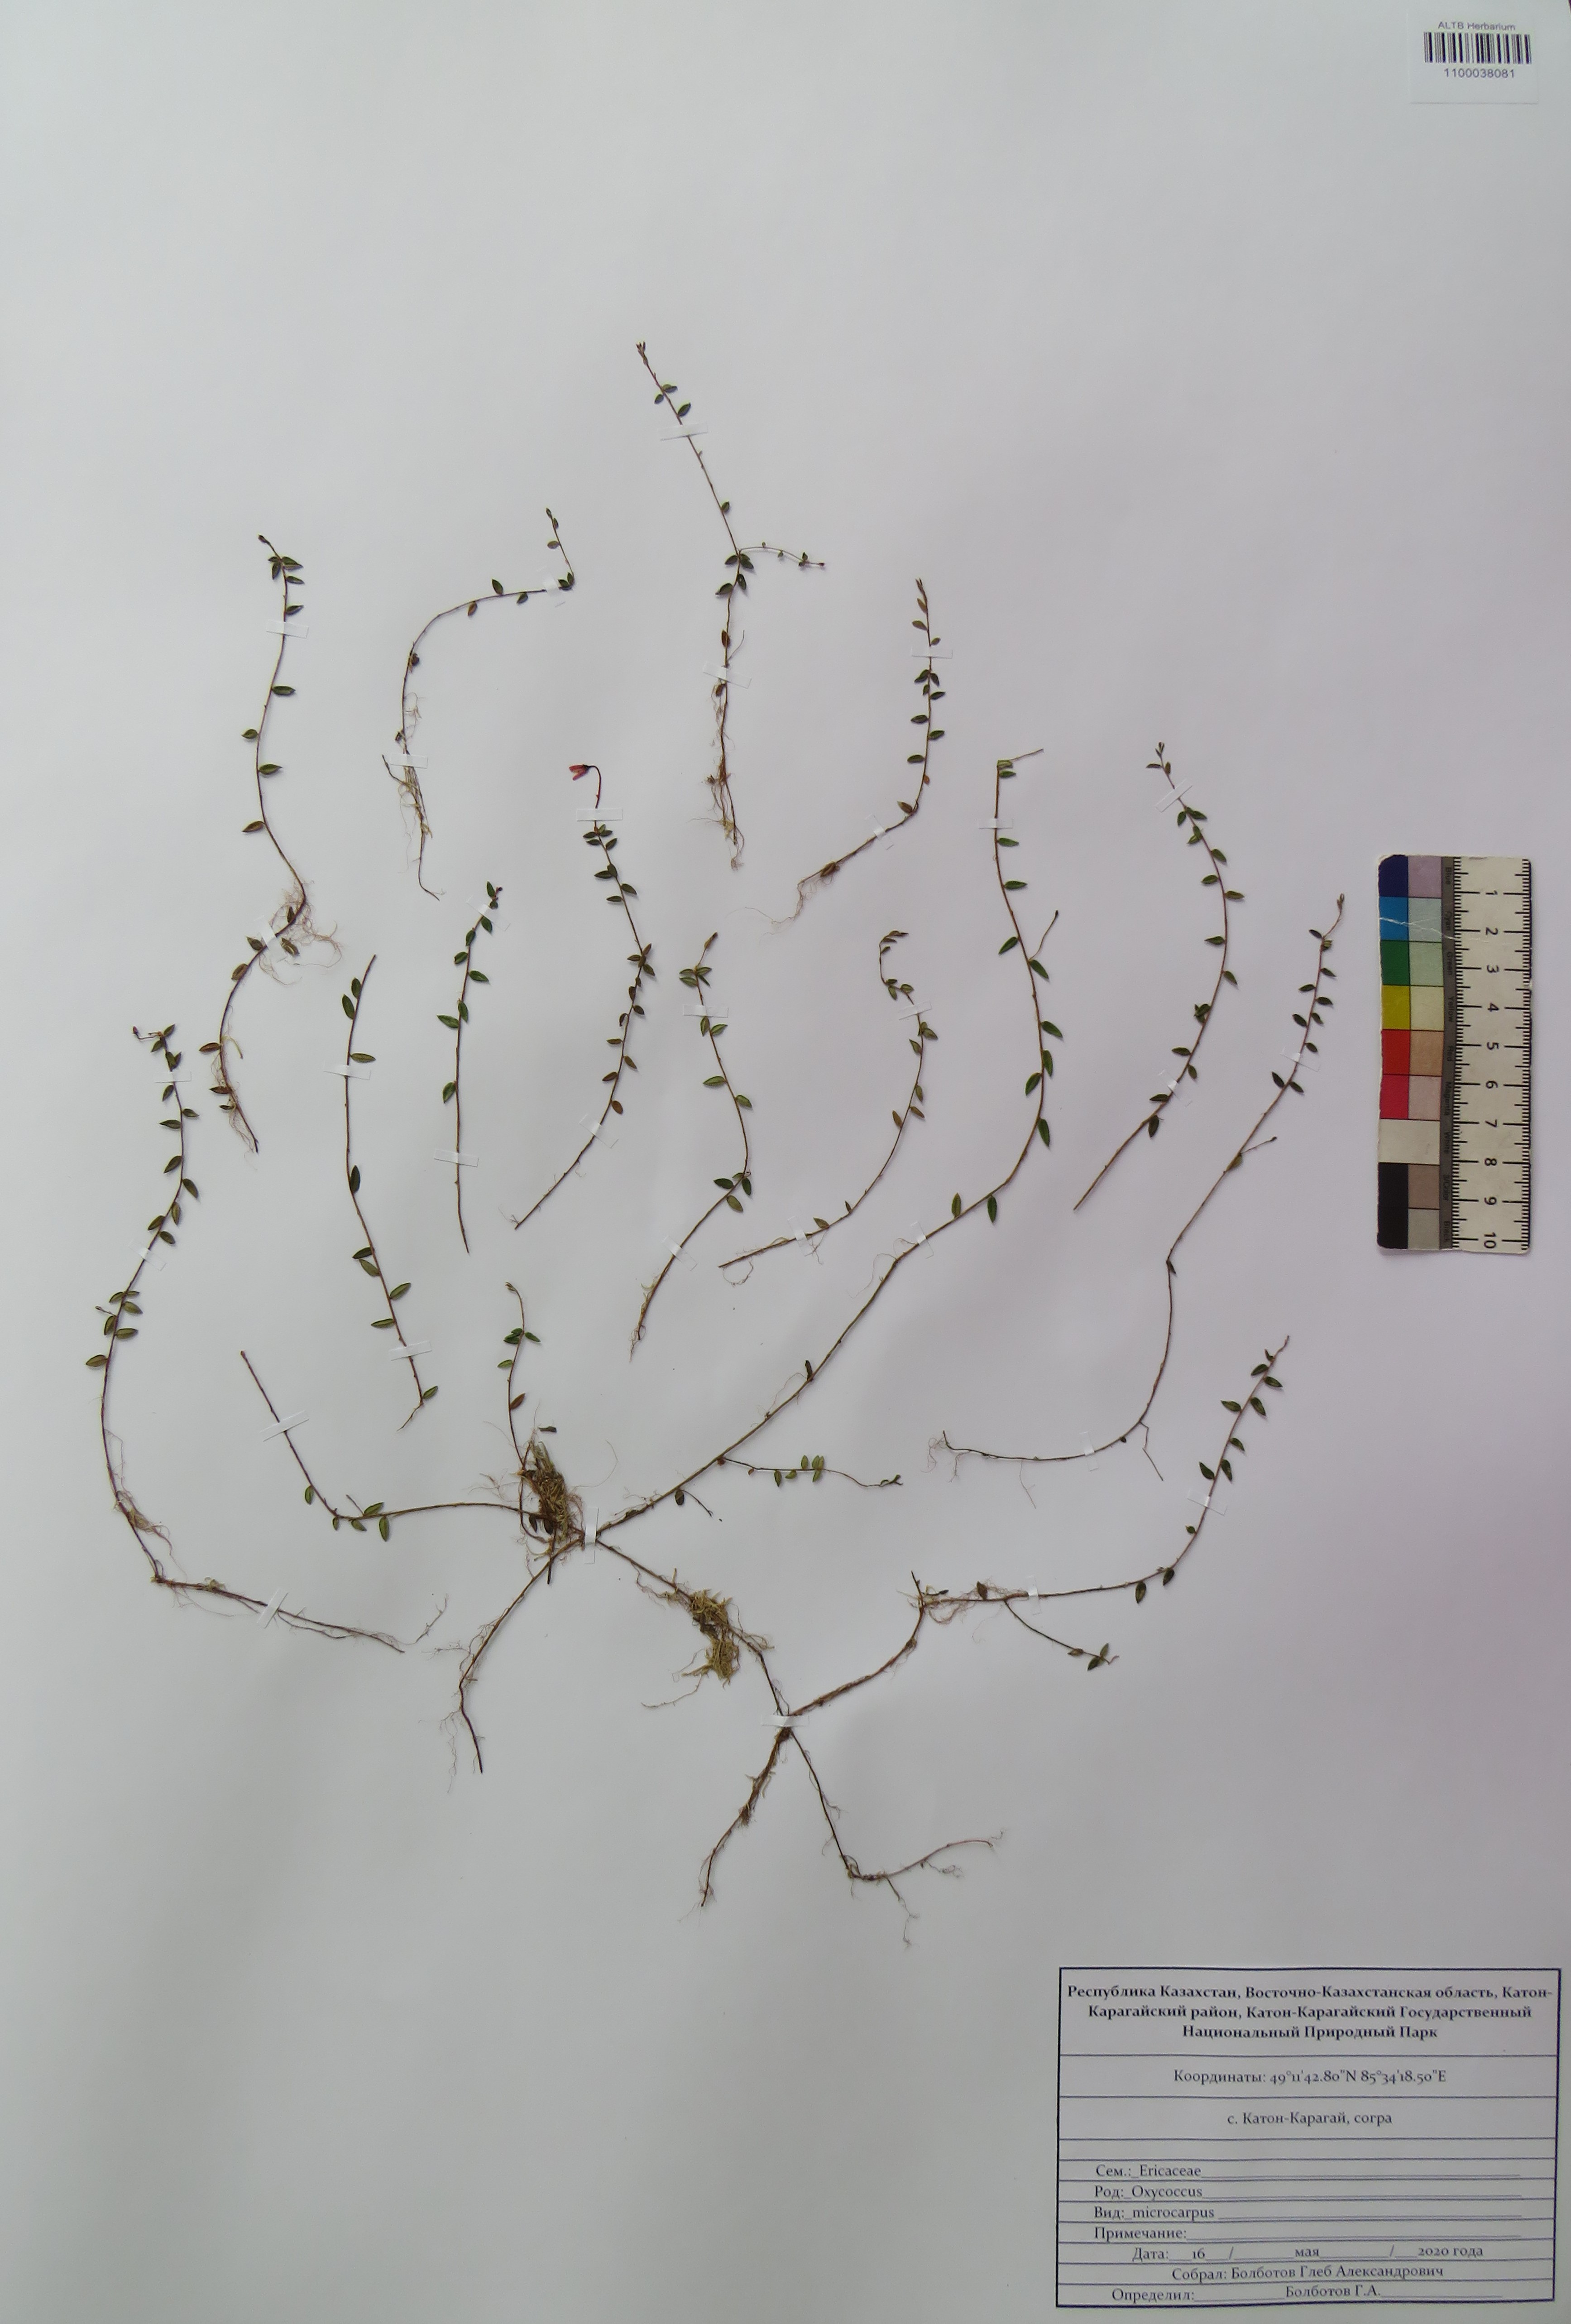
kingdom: Plantae
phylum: Tracheophyta
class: Magnoliopsida
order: Ericales
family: Ericaceae
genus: Vaccinium
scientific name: Vaccinium microcarpum
